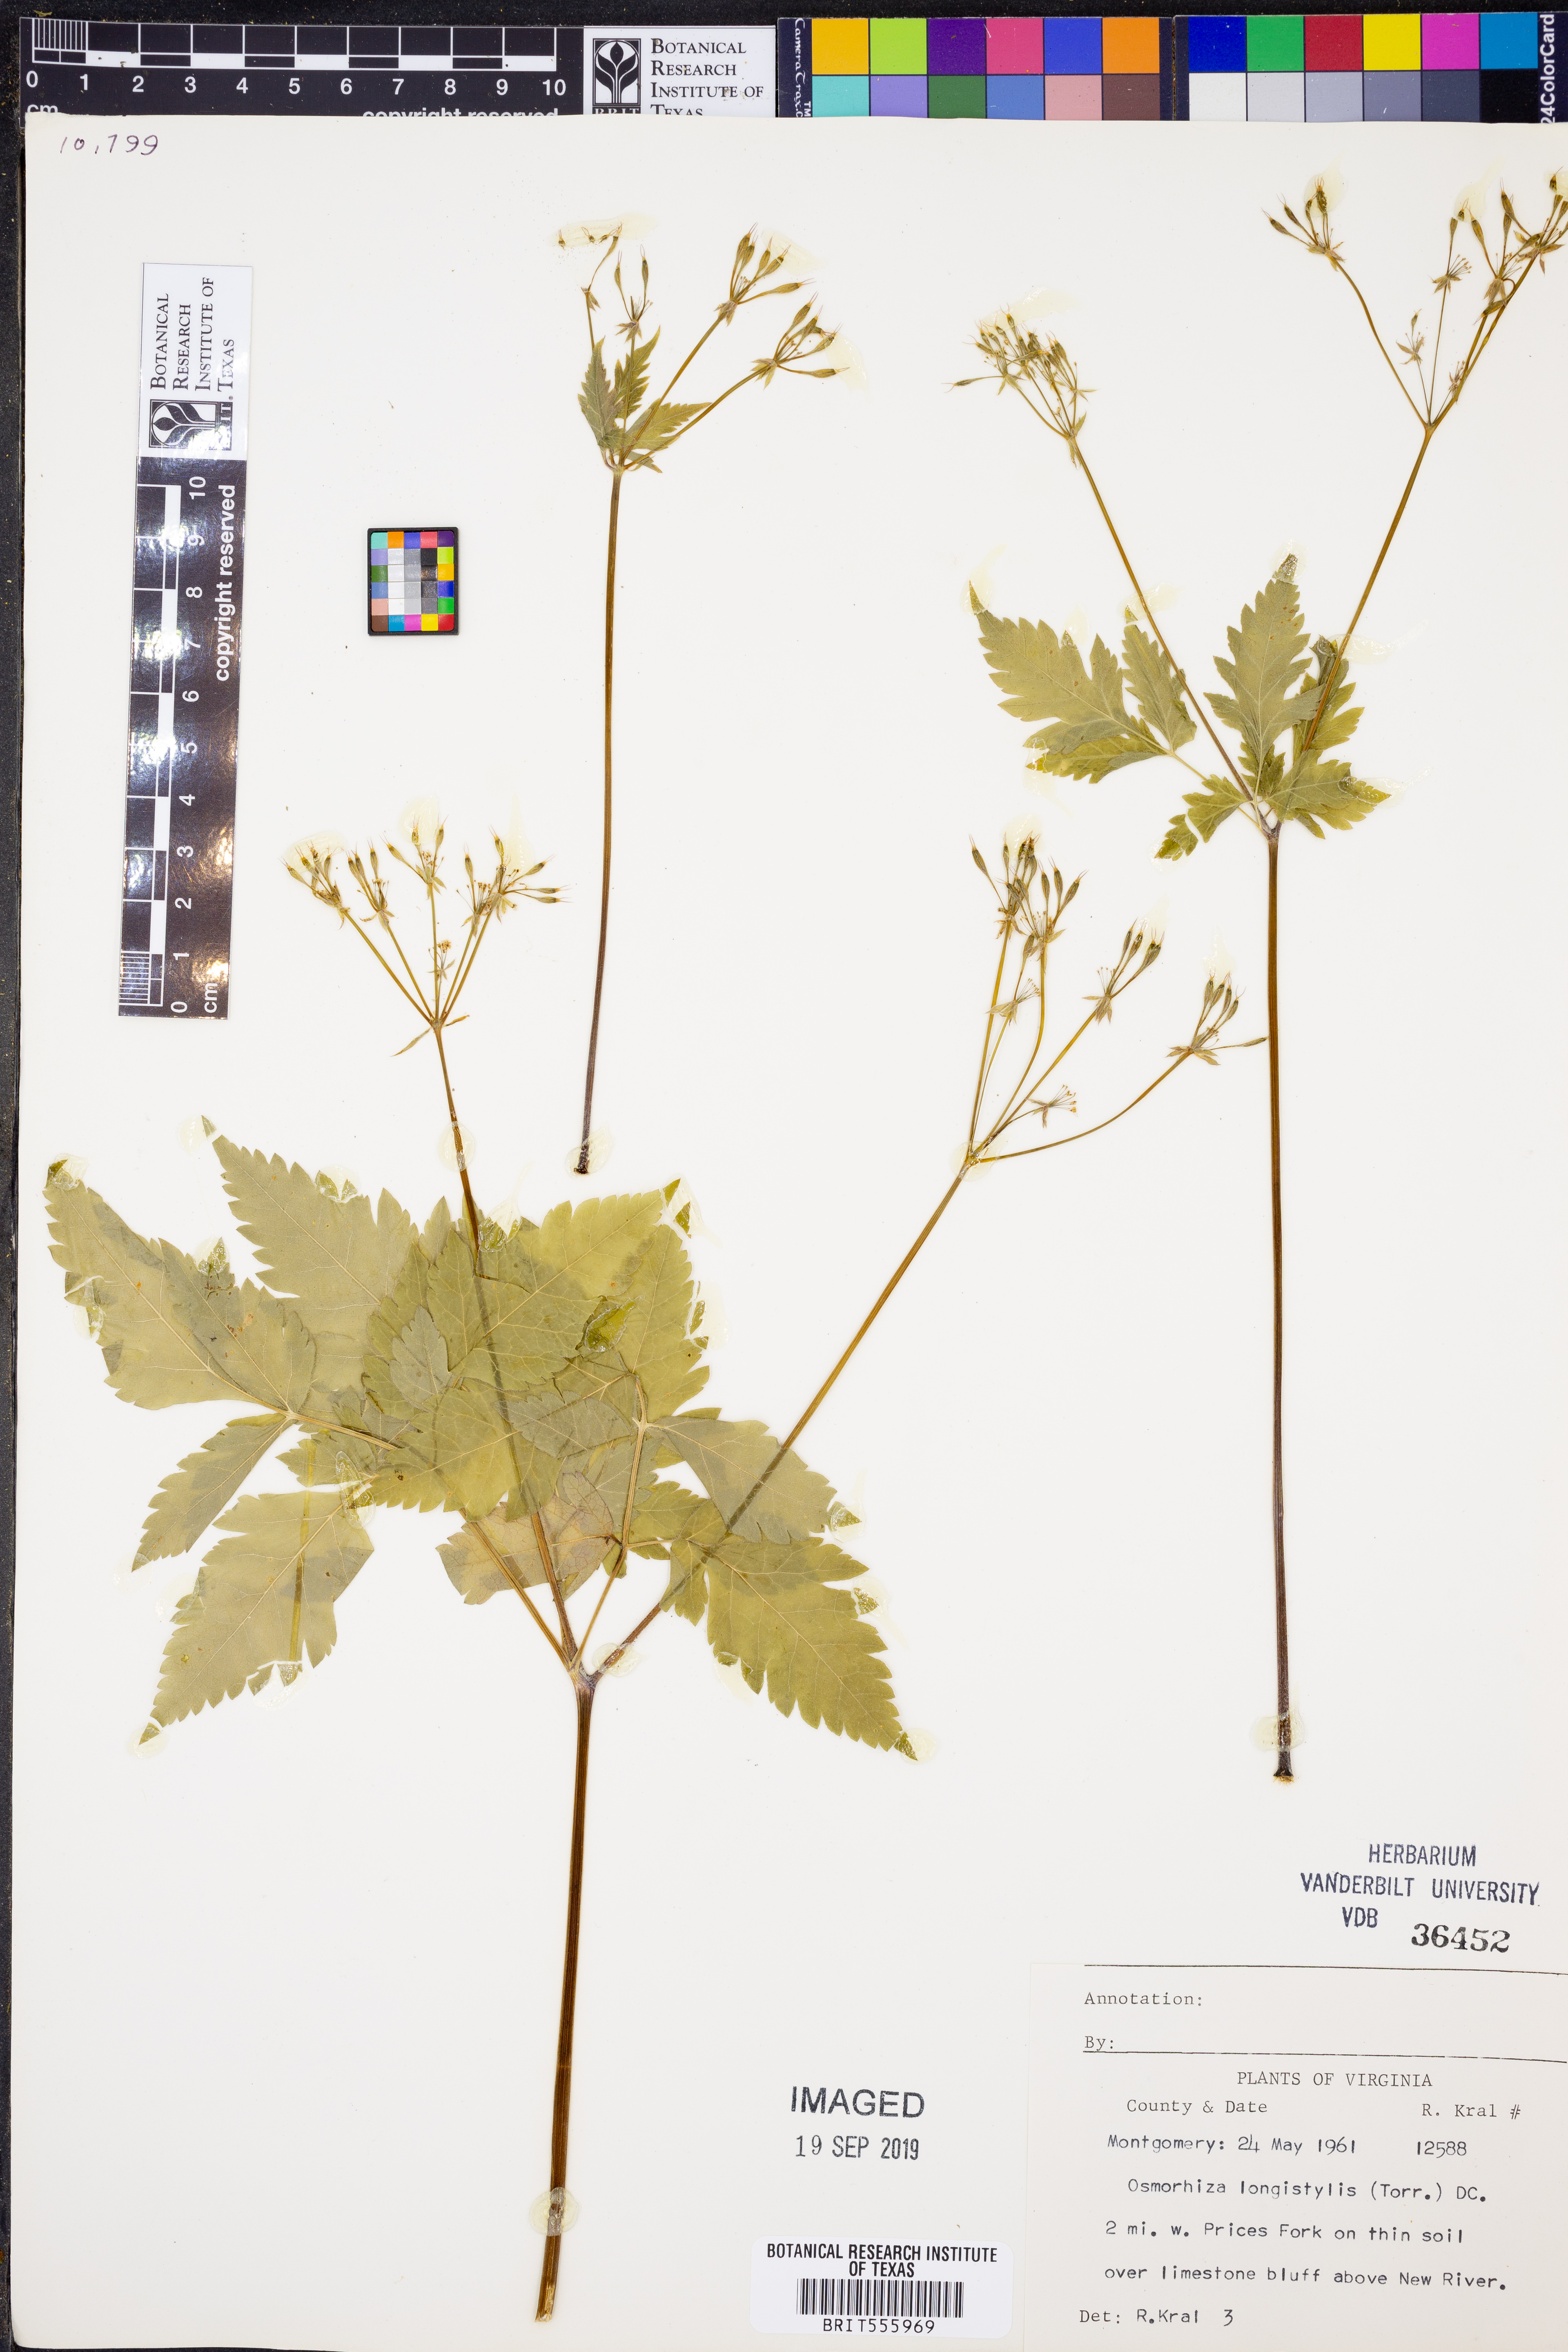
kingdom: Plantae
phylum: Tracheophyta
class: Magnoliopsida
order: Apiales
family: Apiaceae
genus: Osmorhiza
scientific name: Osmorhiza longistylis
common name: Smooth sweet cicely
